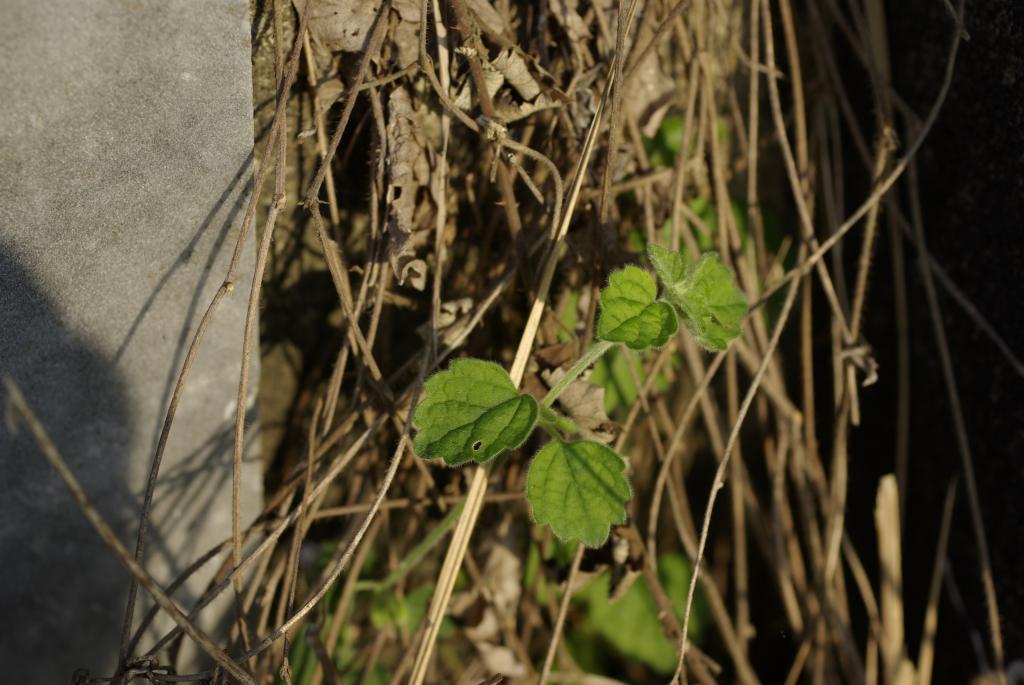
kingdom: Plantae
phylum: Tracheophyta
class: Magnoliopsida
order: Lamiales
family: Lamiaceae
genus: Leucas
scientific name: Leucas chinensis
